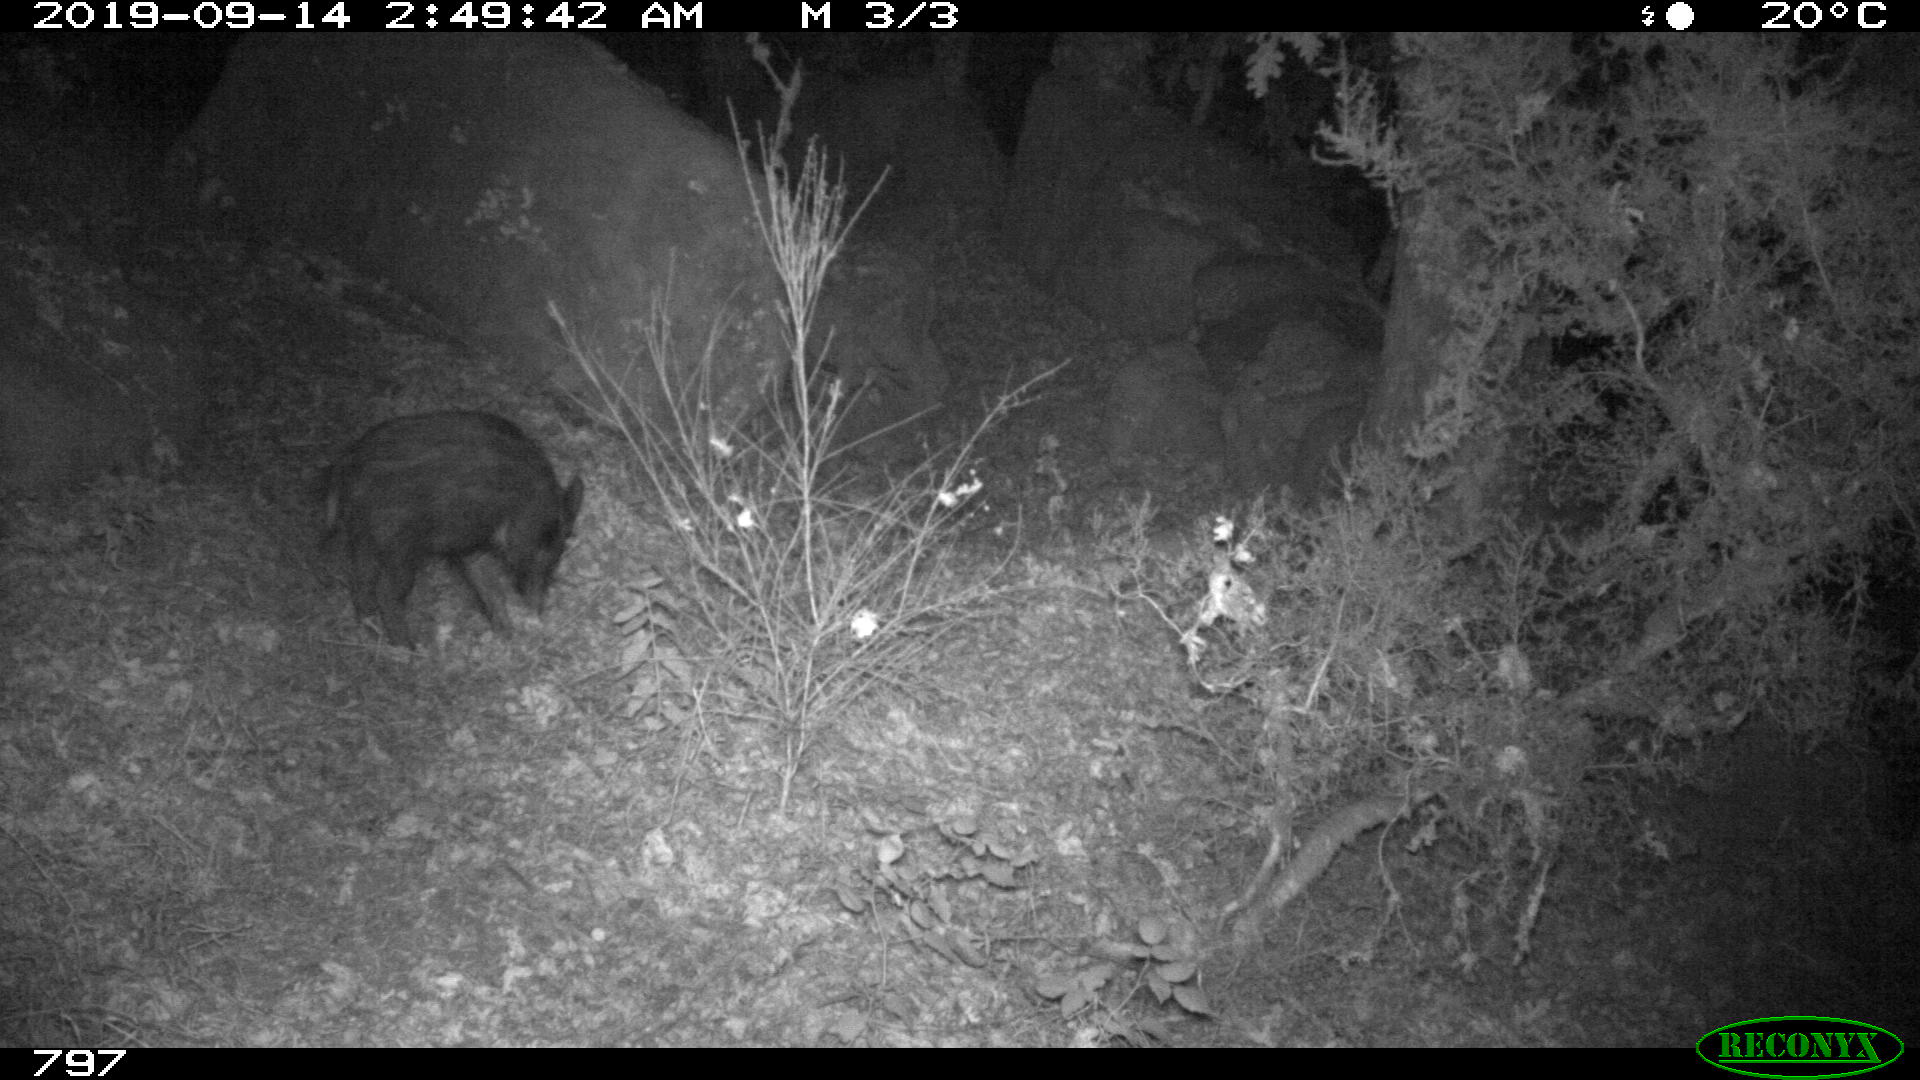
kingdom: Animalia
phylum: Chordata
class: Mammalia
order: Artiodactyla
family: Suidae
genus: Sus
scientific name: Sus scrofa
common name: Wild boar
